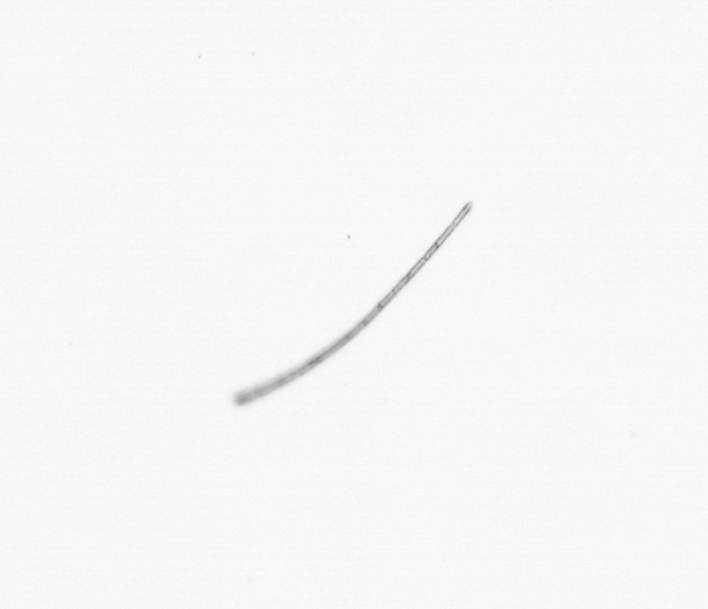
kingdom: Chromista
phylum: Ochrophyta
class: Bacillariophyceae
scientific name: Bacillariophyceae
